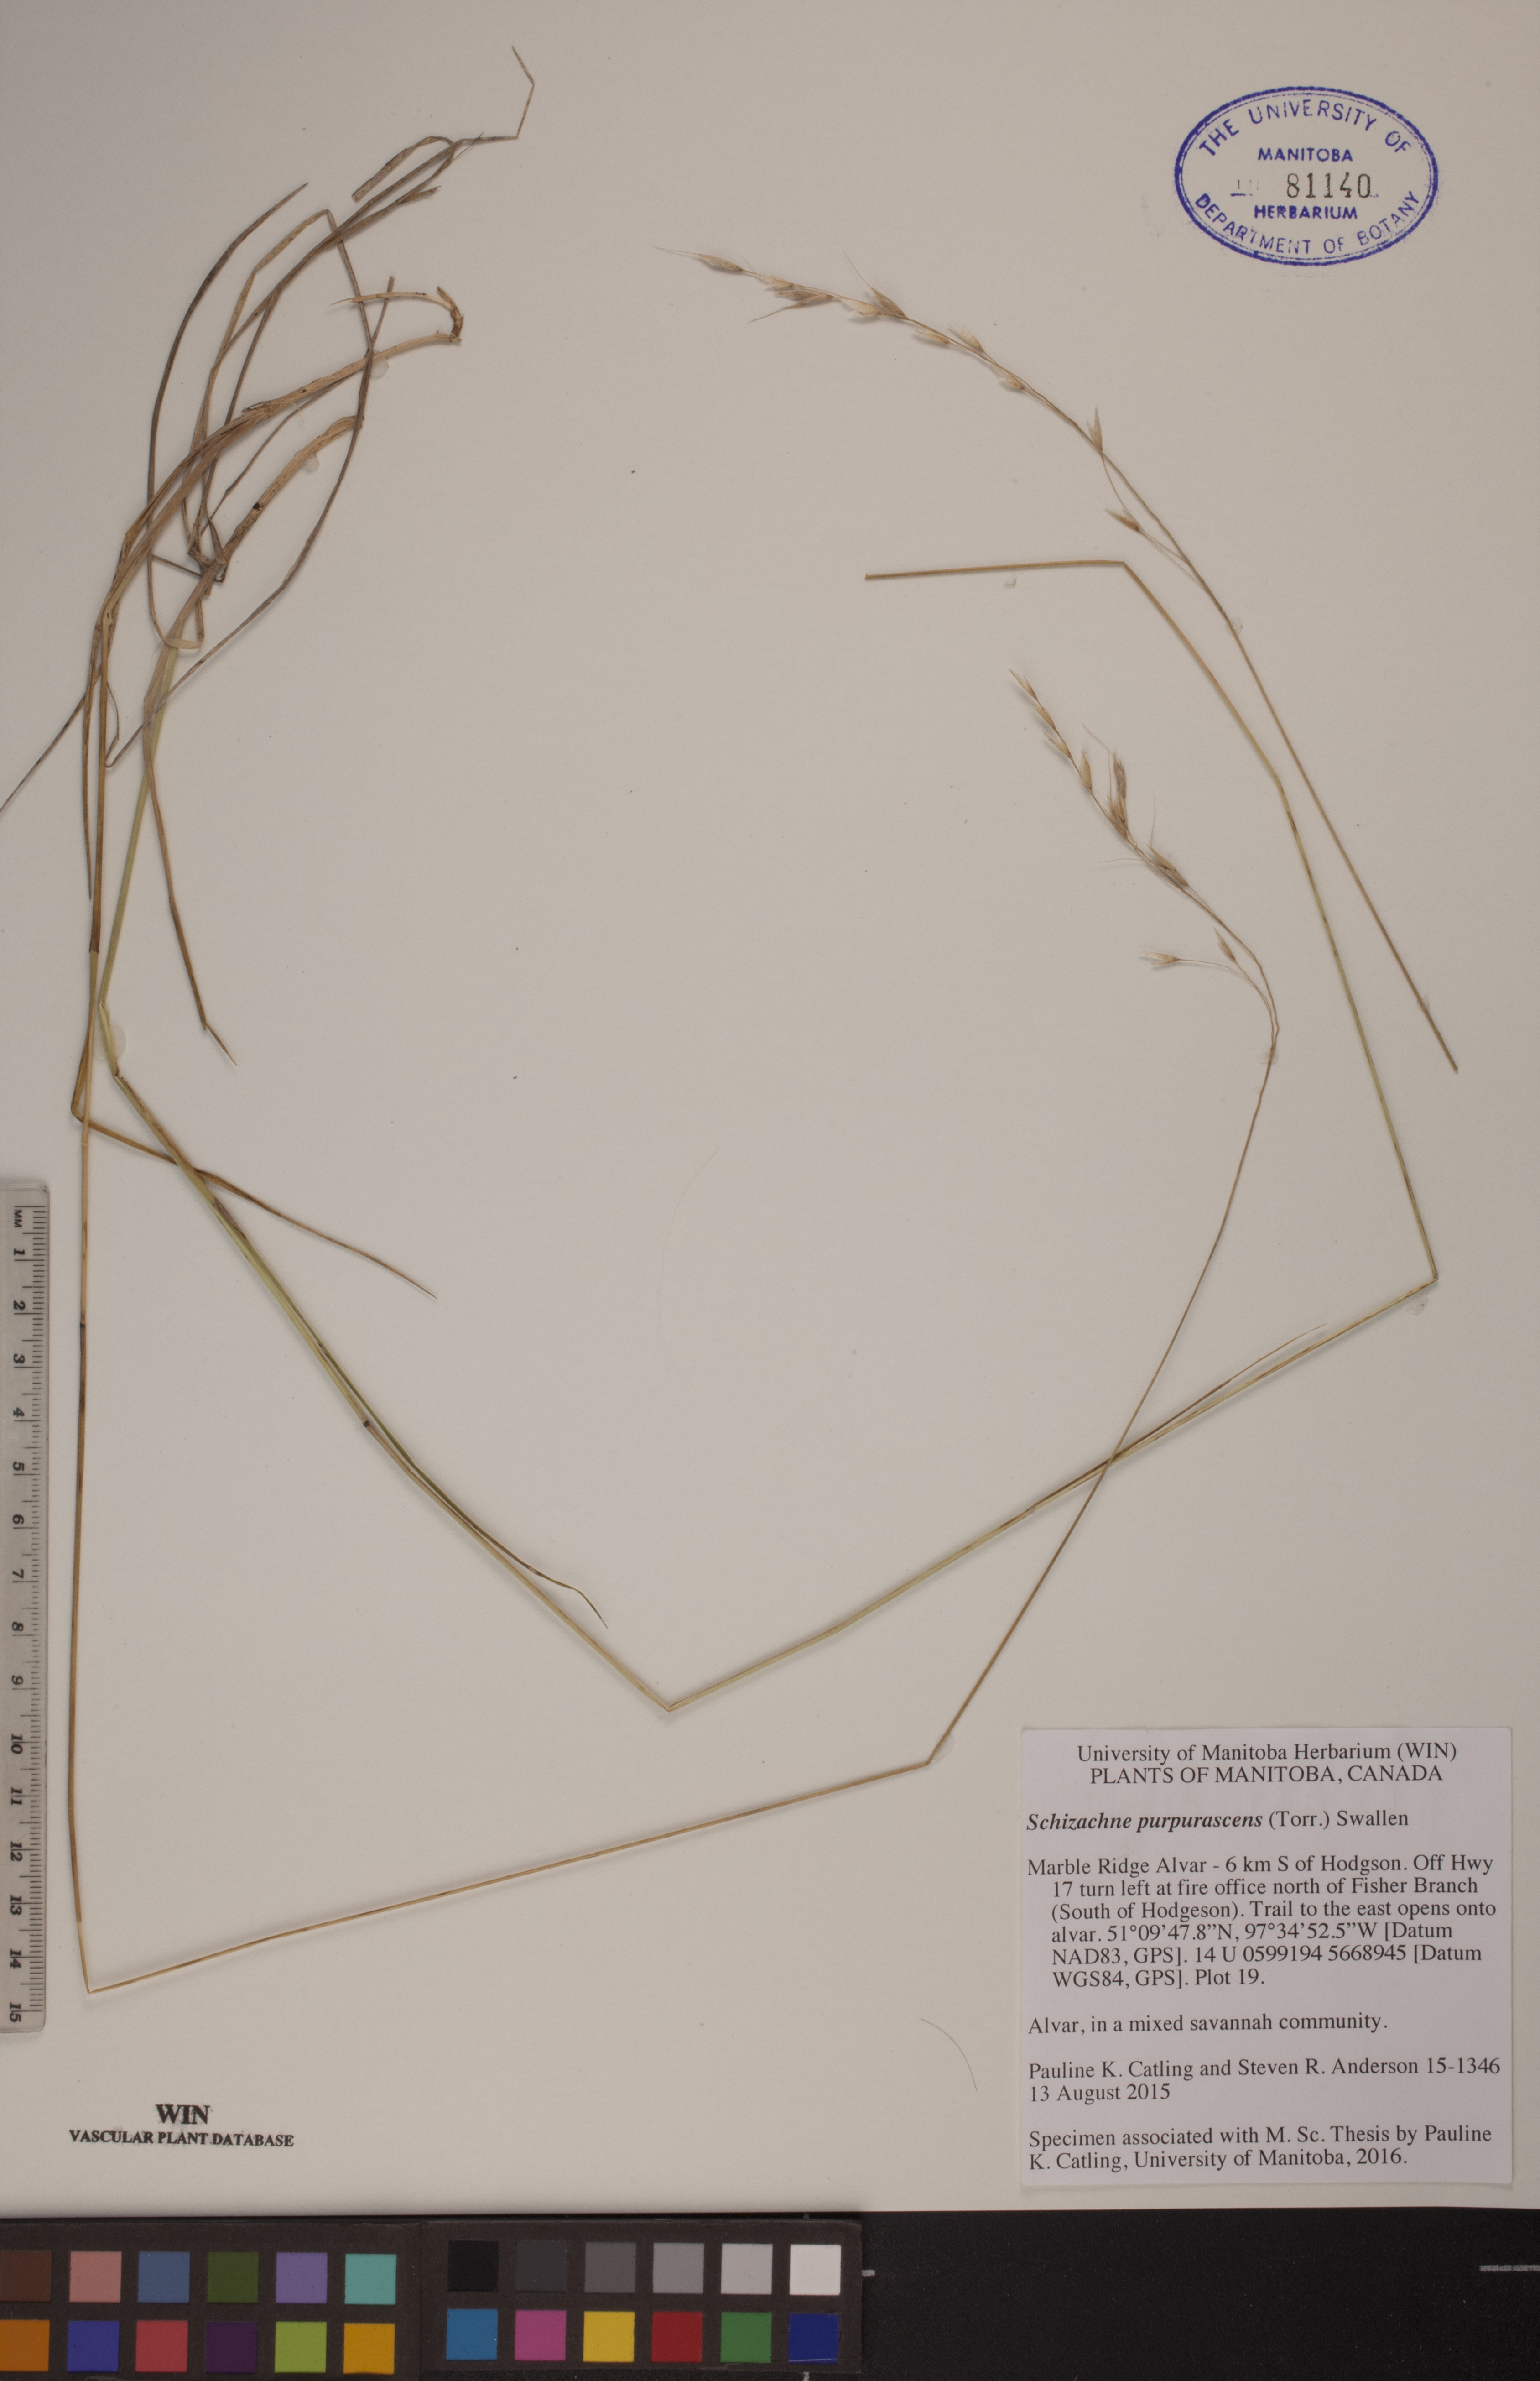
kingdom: Plantae
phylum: Tracheophyta
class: Liliopsida
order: Poales
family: Poaceae
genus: Schizachne
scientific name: Schizachne purpurascens
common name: False melic
